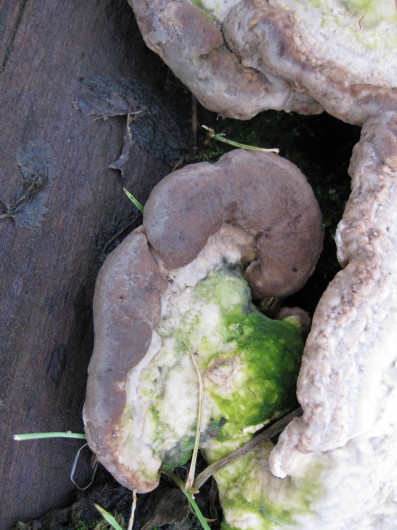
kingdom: Fungi
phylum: Basidiomycota
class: Agaricomycetes
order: Polyporales
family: Polyporaceae
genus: Trametes
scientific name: Trametes gibbosa
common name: puklet læderporesvamp
